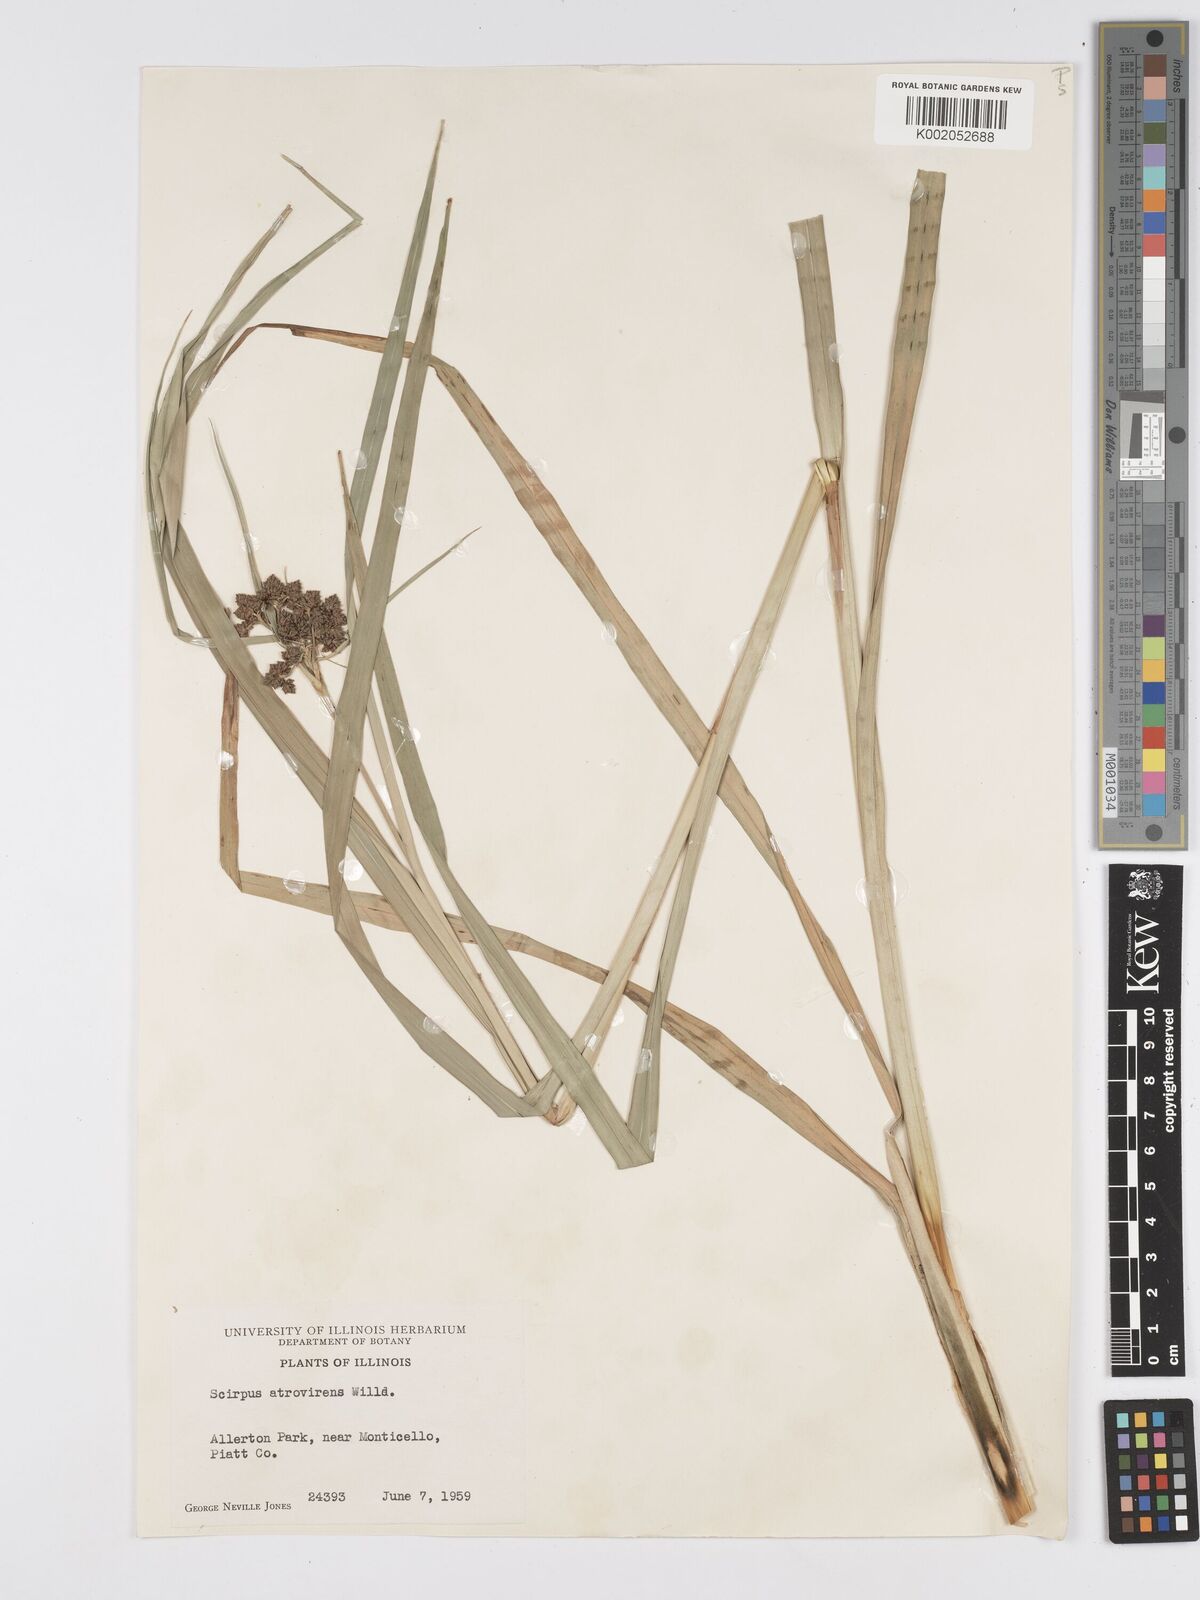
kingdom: Plantae
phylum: Tracheophyta
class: Liliopsida
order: Poales
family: Cyperaceae
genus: Scirpus
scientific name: Scirpus atrovirens
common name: Black bulrush
